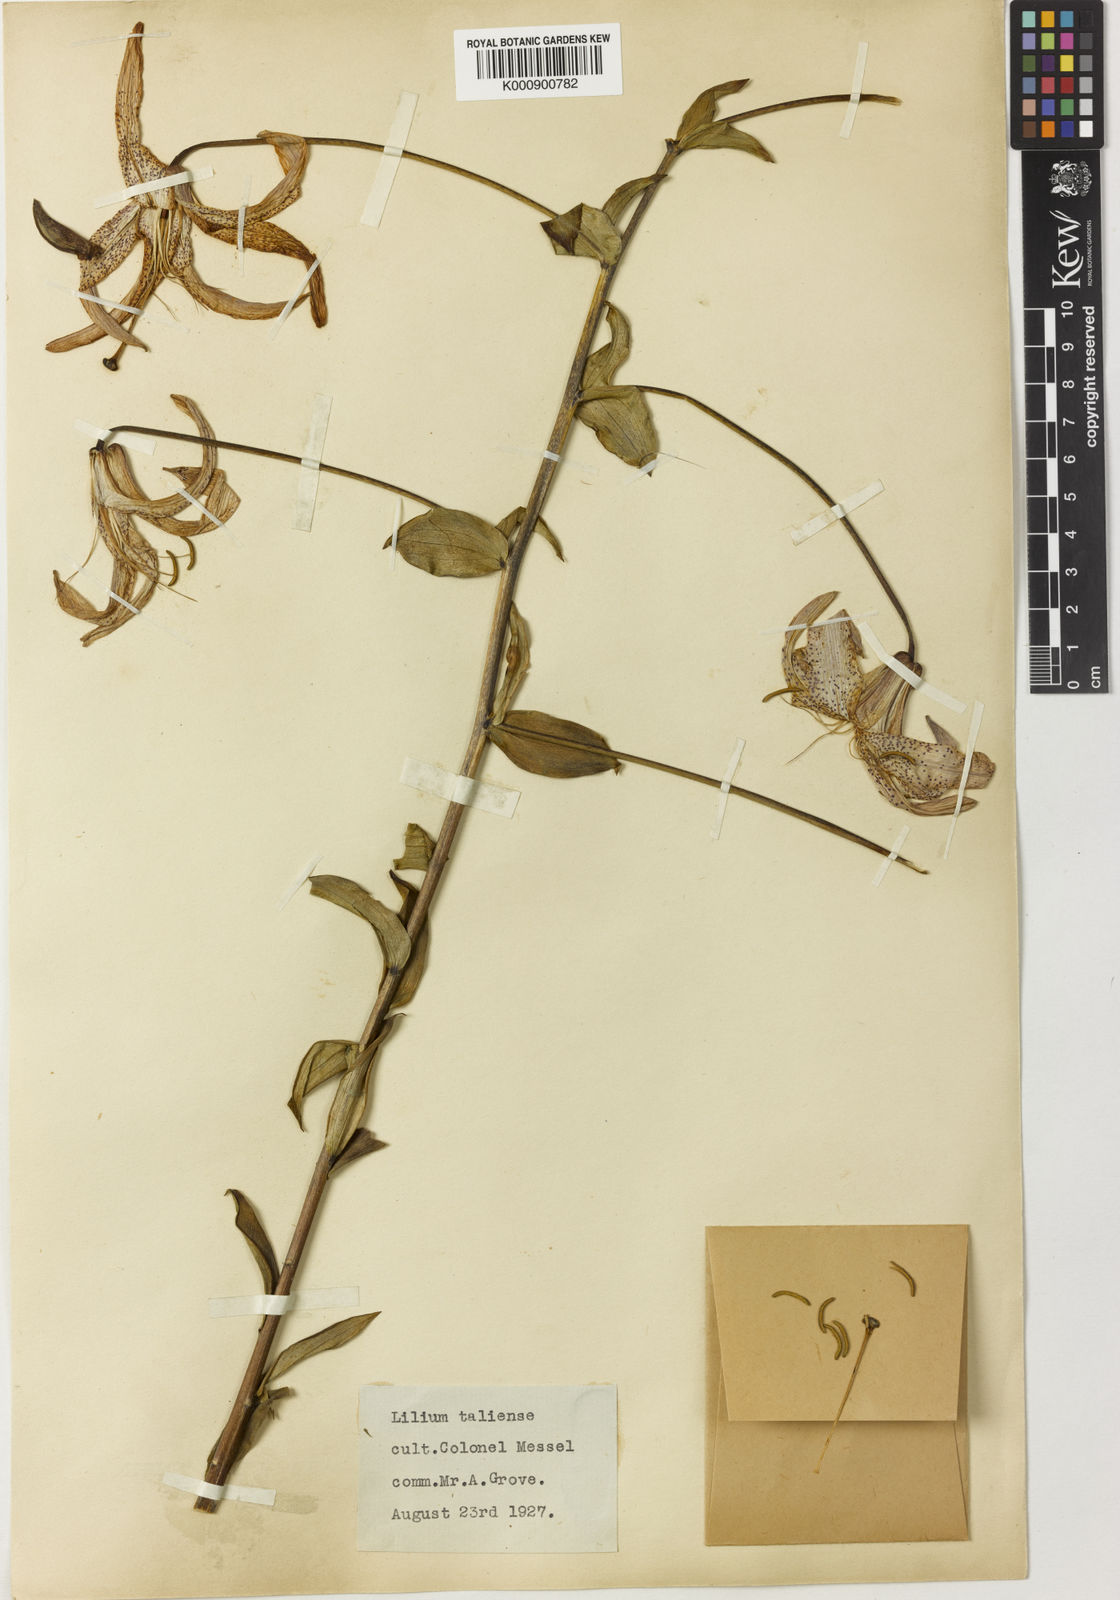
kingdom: Plantae
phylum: Tracheophyta
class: Liliopsida
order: Liliales
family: Liliaceae
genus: Lilium
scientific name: Lilium wardii
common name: Ward's lily
